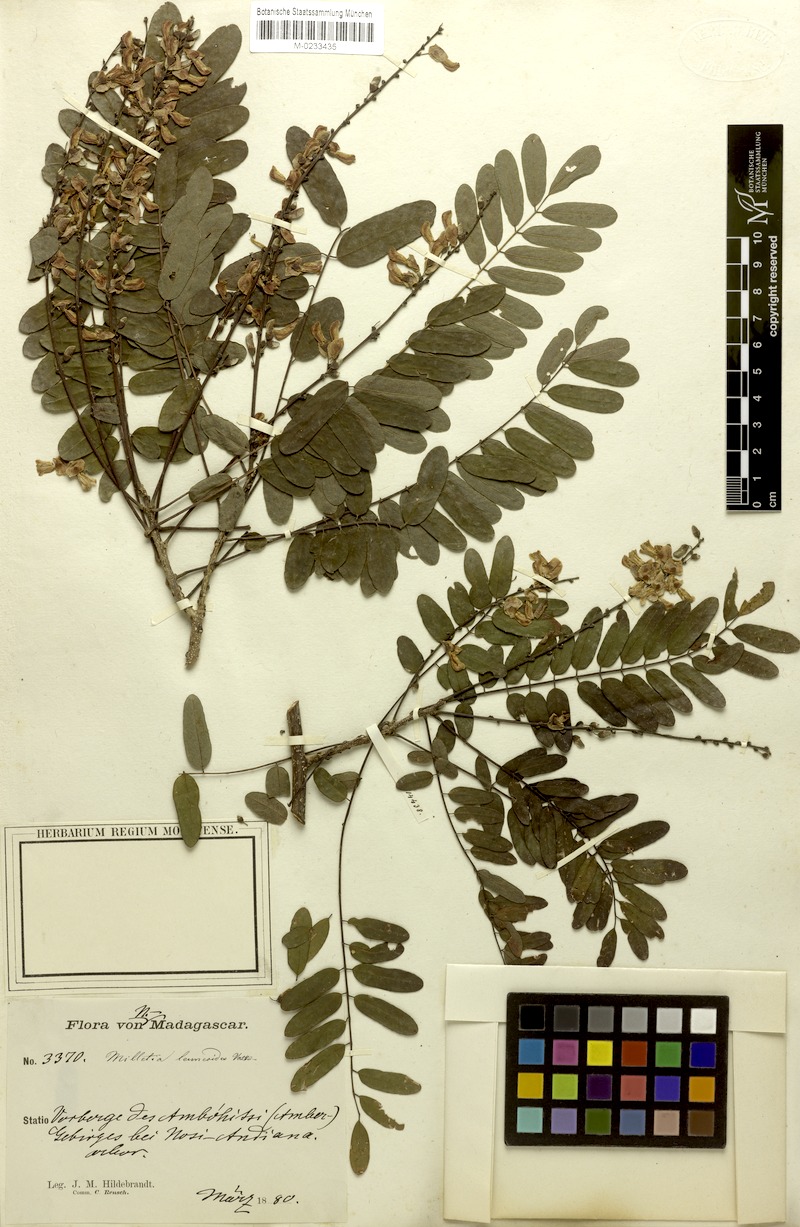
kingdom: Plantae
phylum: Tracheophyta
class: Magnoliopsida
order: Fabales
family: Fabaceae
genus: Millettia
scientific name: Millettia lenneoides
